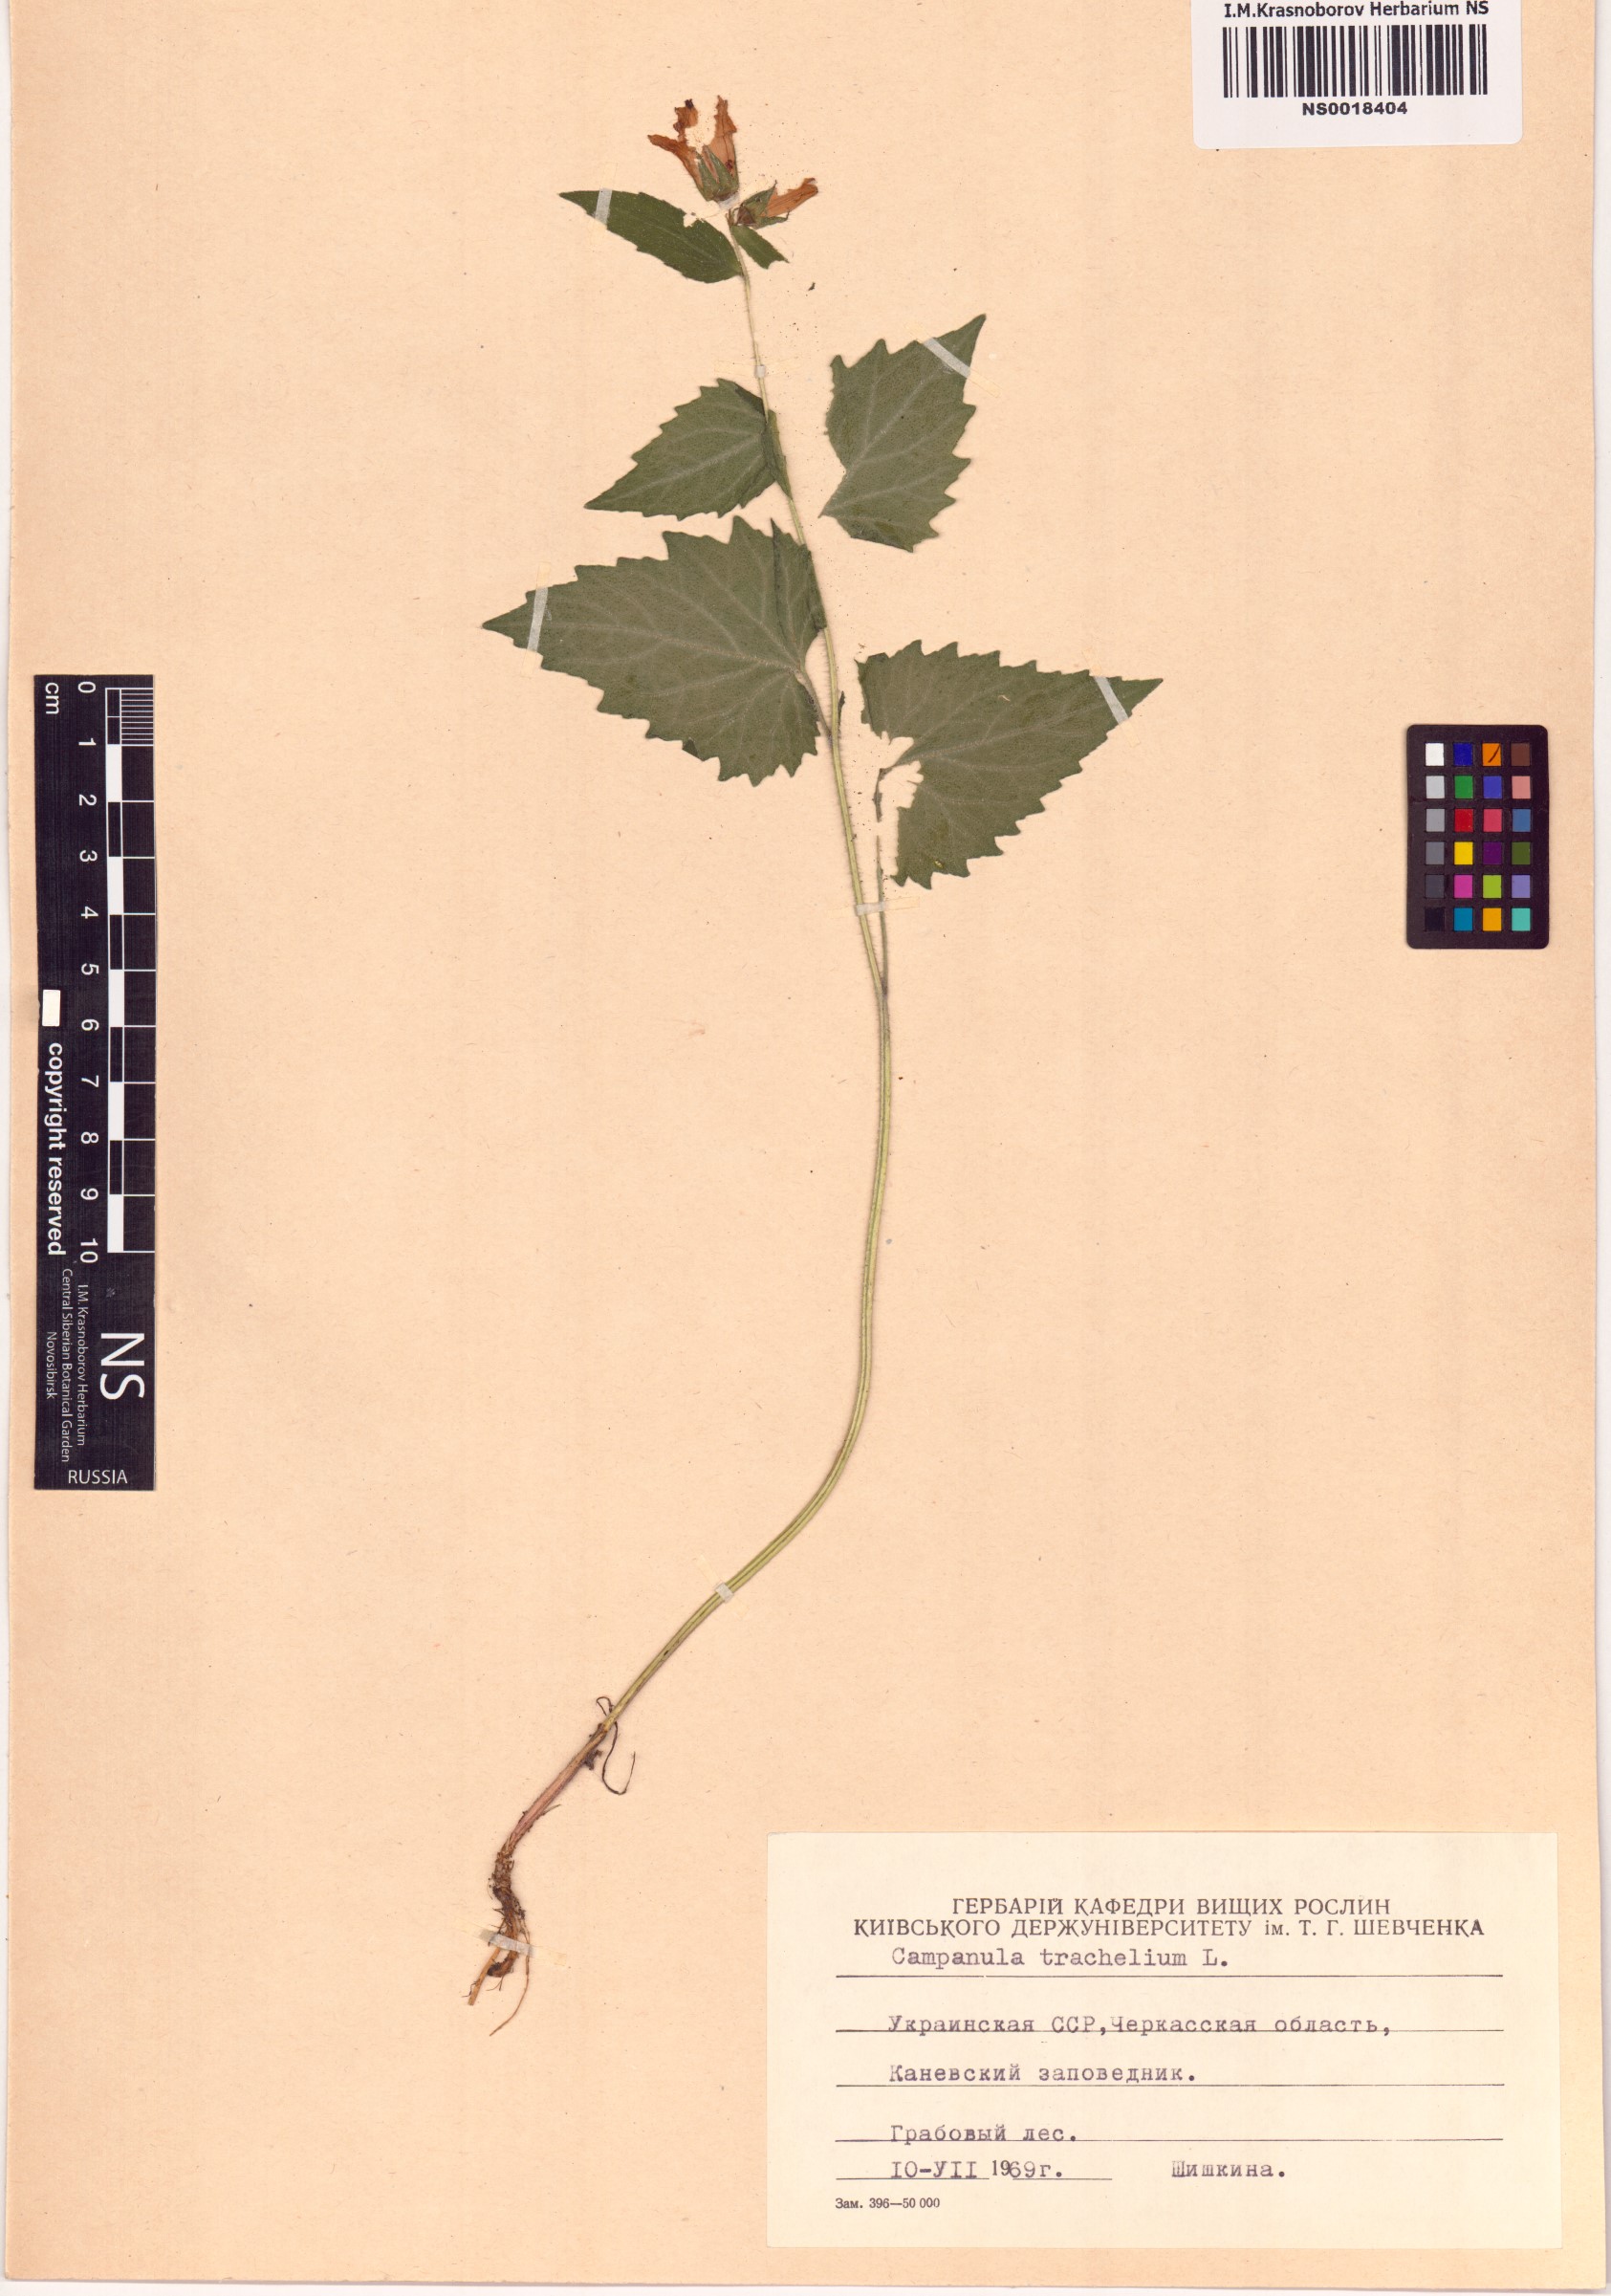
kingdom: Plantae
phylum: Tracheophyta
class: Magnoliopsida
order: Asterales
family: Campanulaceae
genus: Campanula
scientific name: Campanula trachelium
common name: Nettle-leaved bellflower
